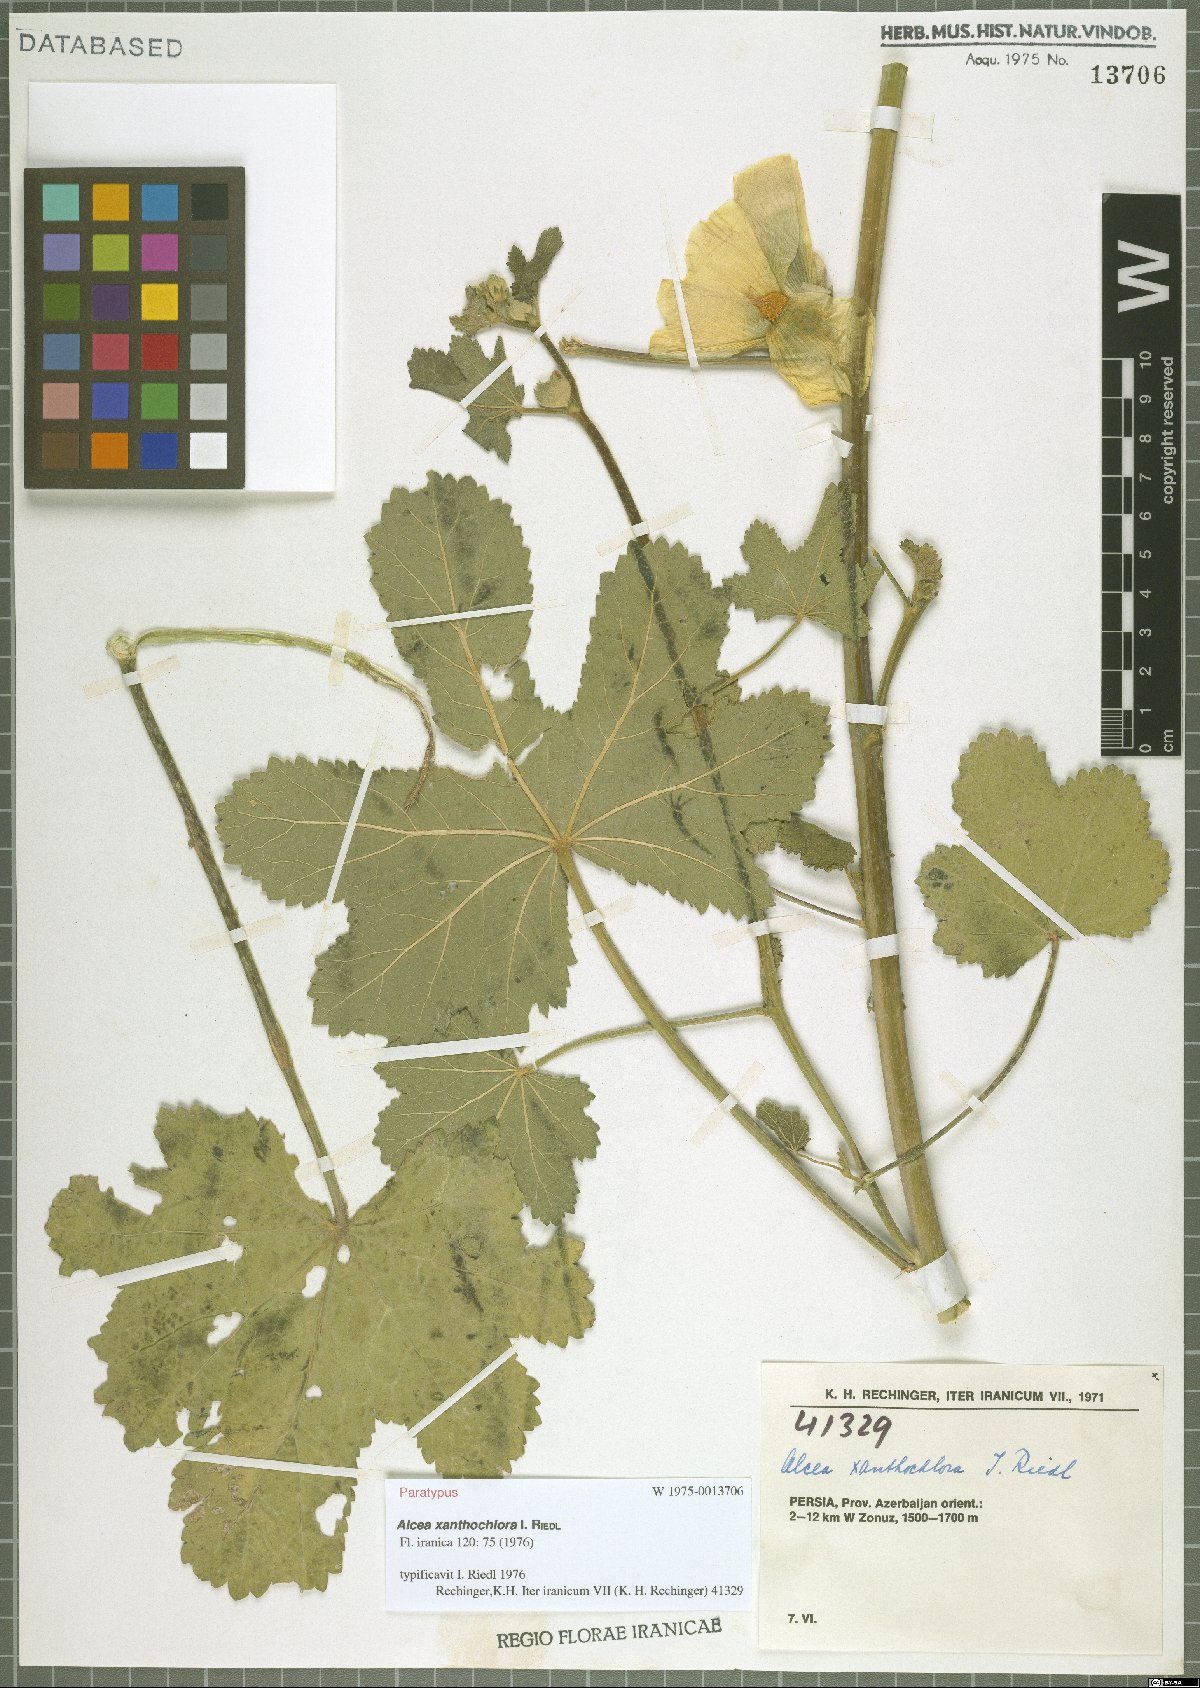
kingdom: Plantae
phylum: Tracheophyta
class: Magnoliopsida
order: Malvales
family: Malvaceae
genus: Alcea
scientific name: Alcea xanthochlora
